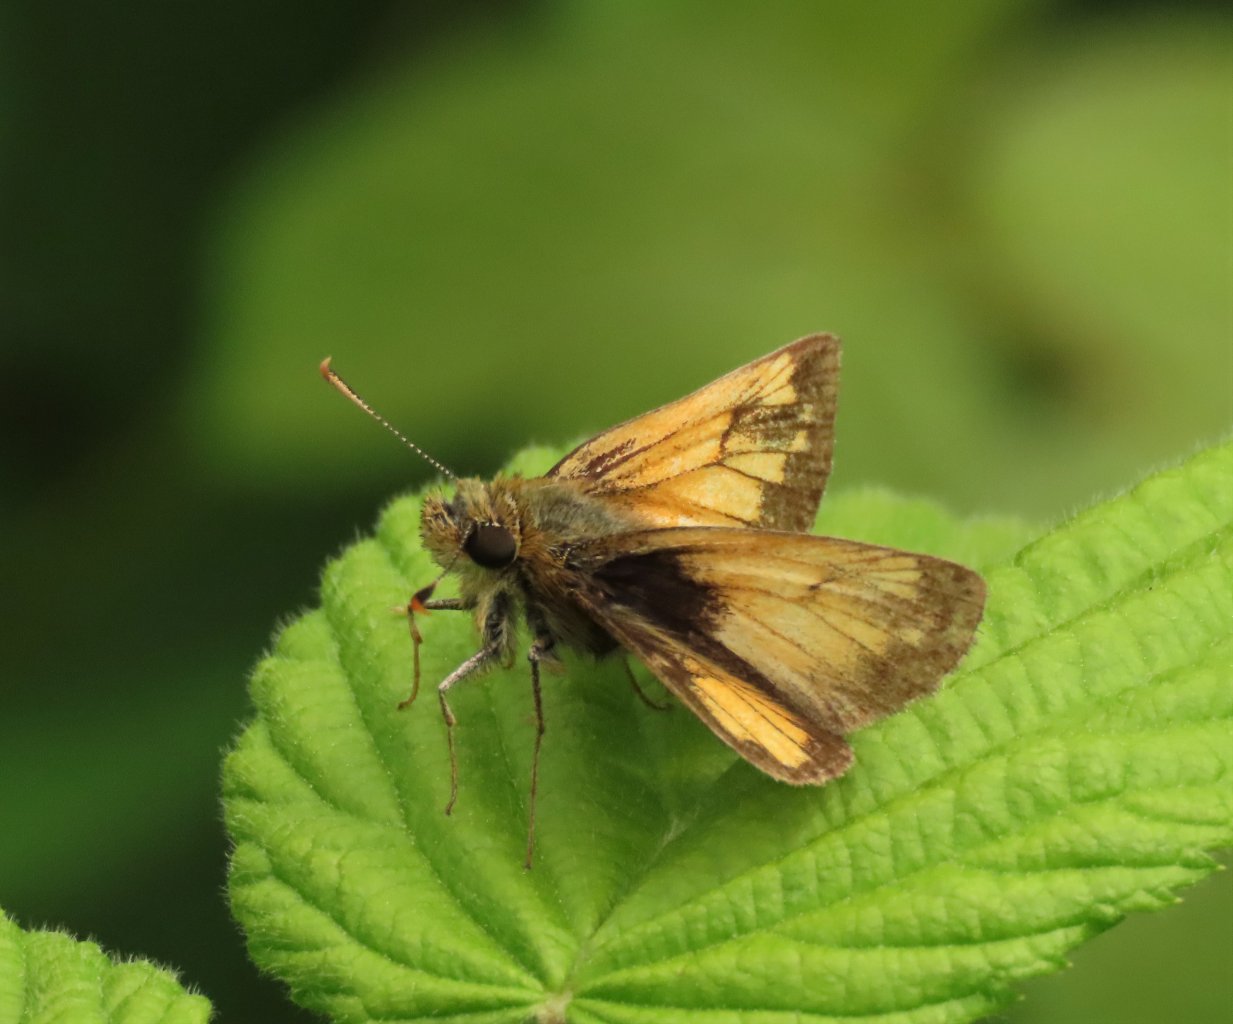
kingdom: Animalia
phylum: Arthropoda
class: Insecta
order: Lepidoptera
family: Hesperiidae
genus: Lon
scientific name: Lon hobomok
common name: Hobomok Skipper
